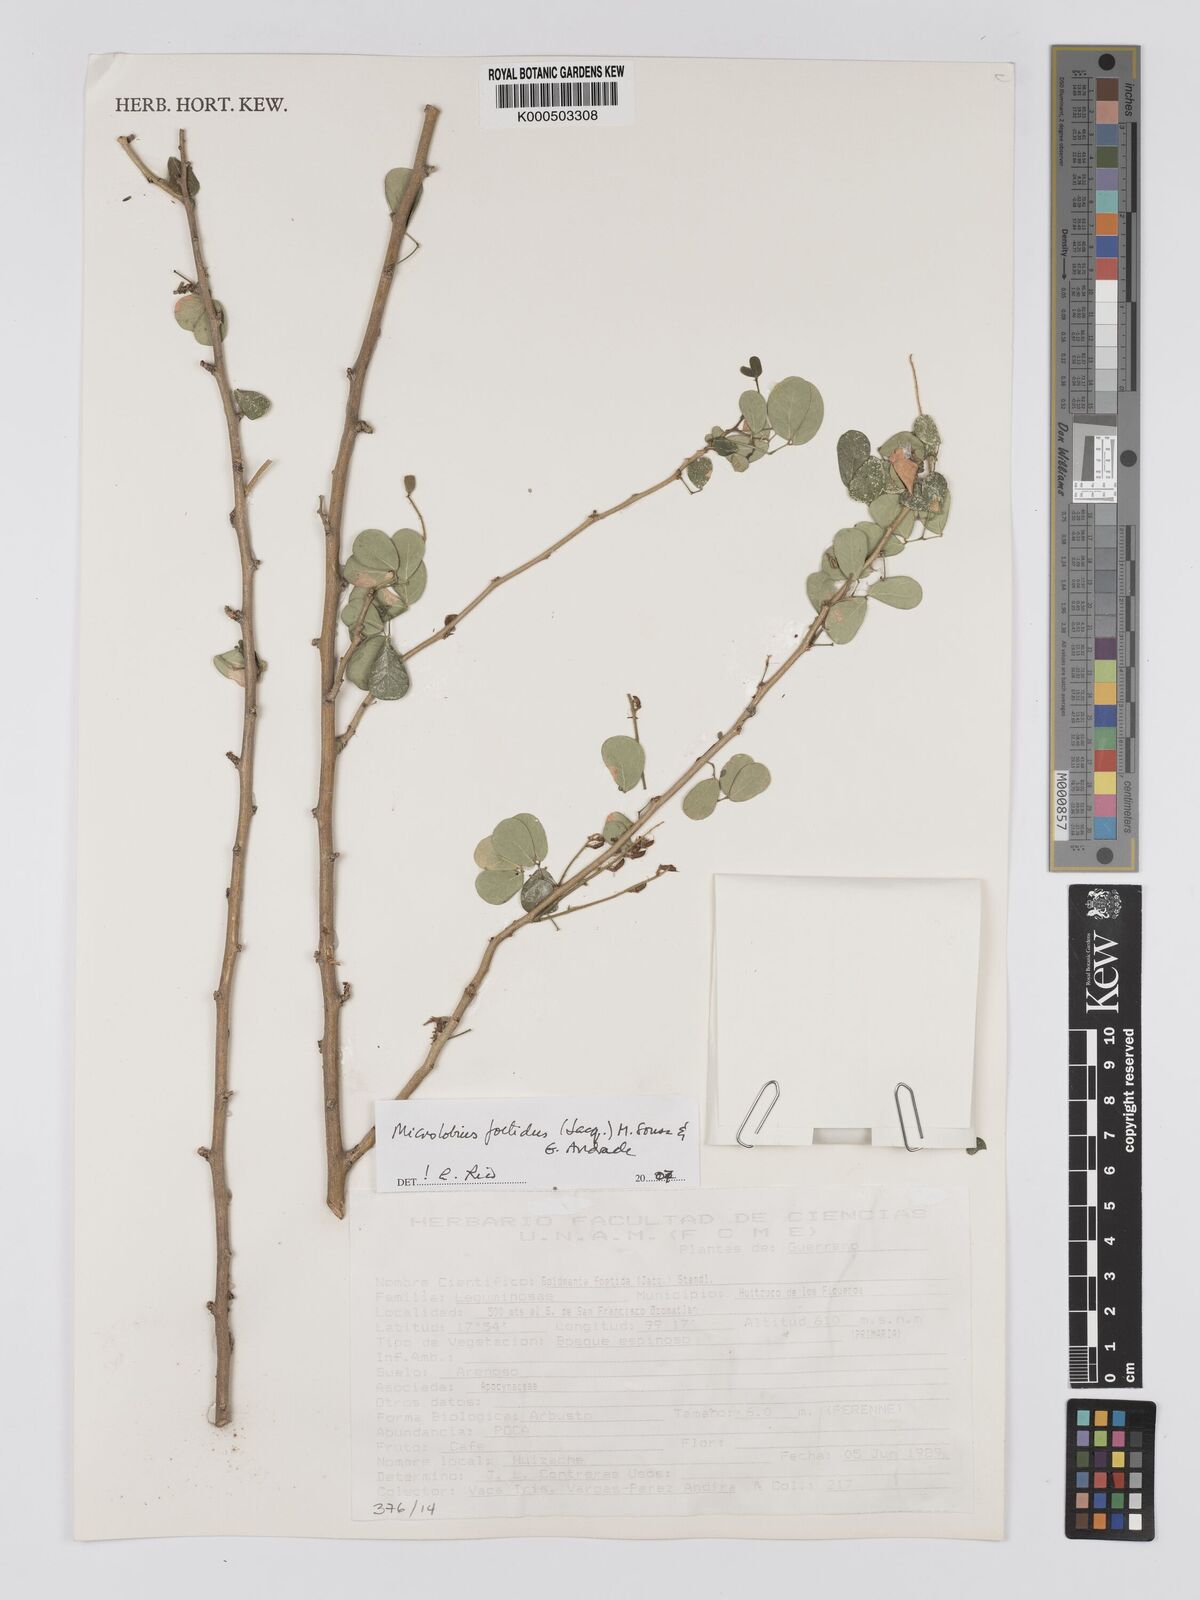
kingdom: Plantae
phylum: Tracheophyta
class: Magnoliopsida
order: Fabales
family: Fabaceae
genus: Microlobius
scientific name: Microlobius foetidus
